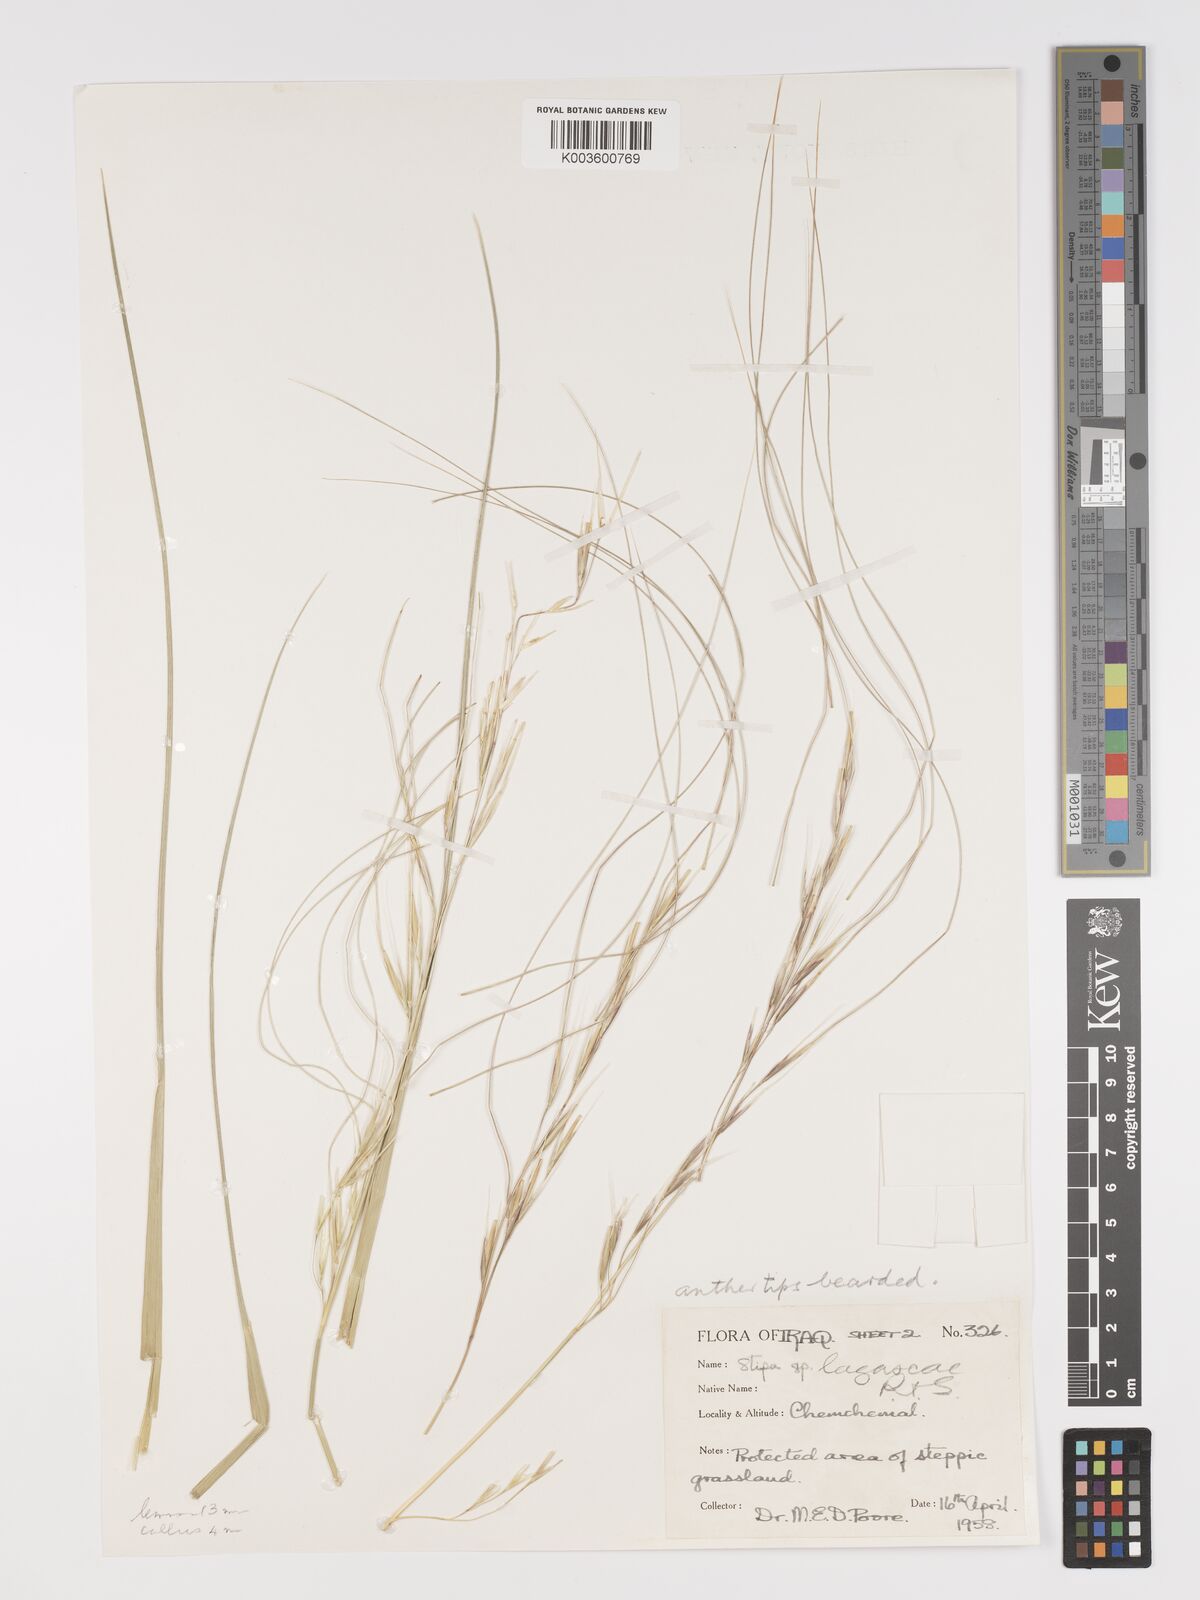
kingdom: Plantae
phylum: Tracheophyta
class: Liliopsida
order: Poales
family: Poaceae
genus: Stipa
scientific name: Stipa lagascae
